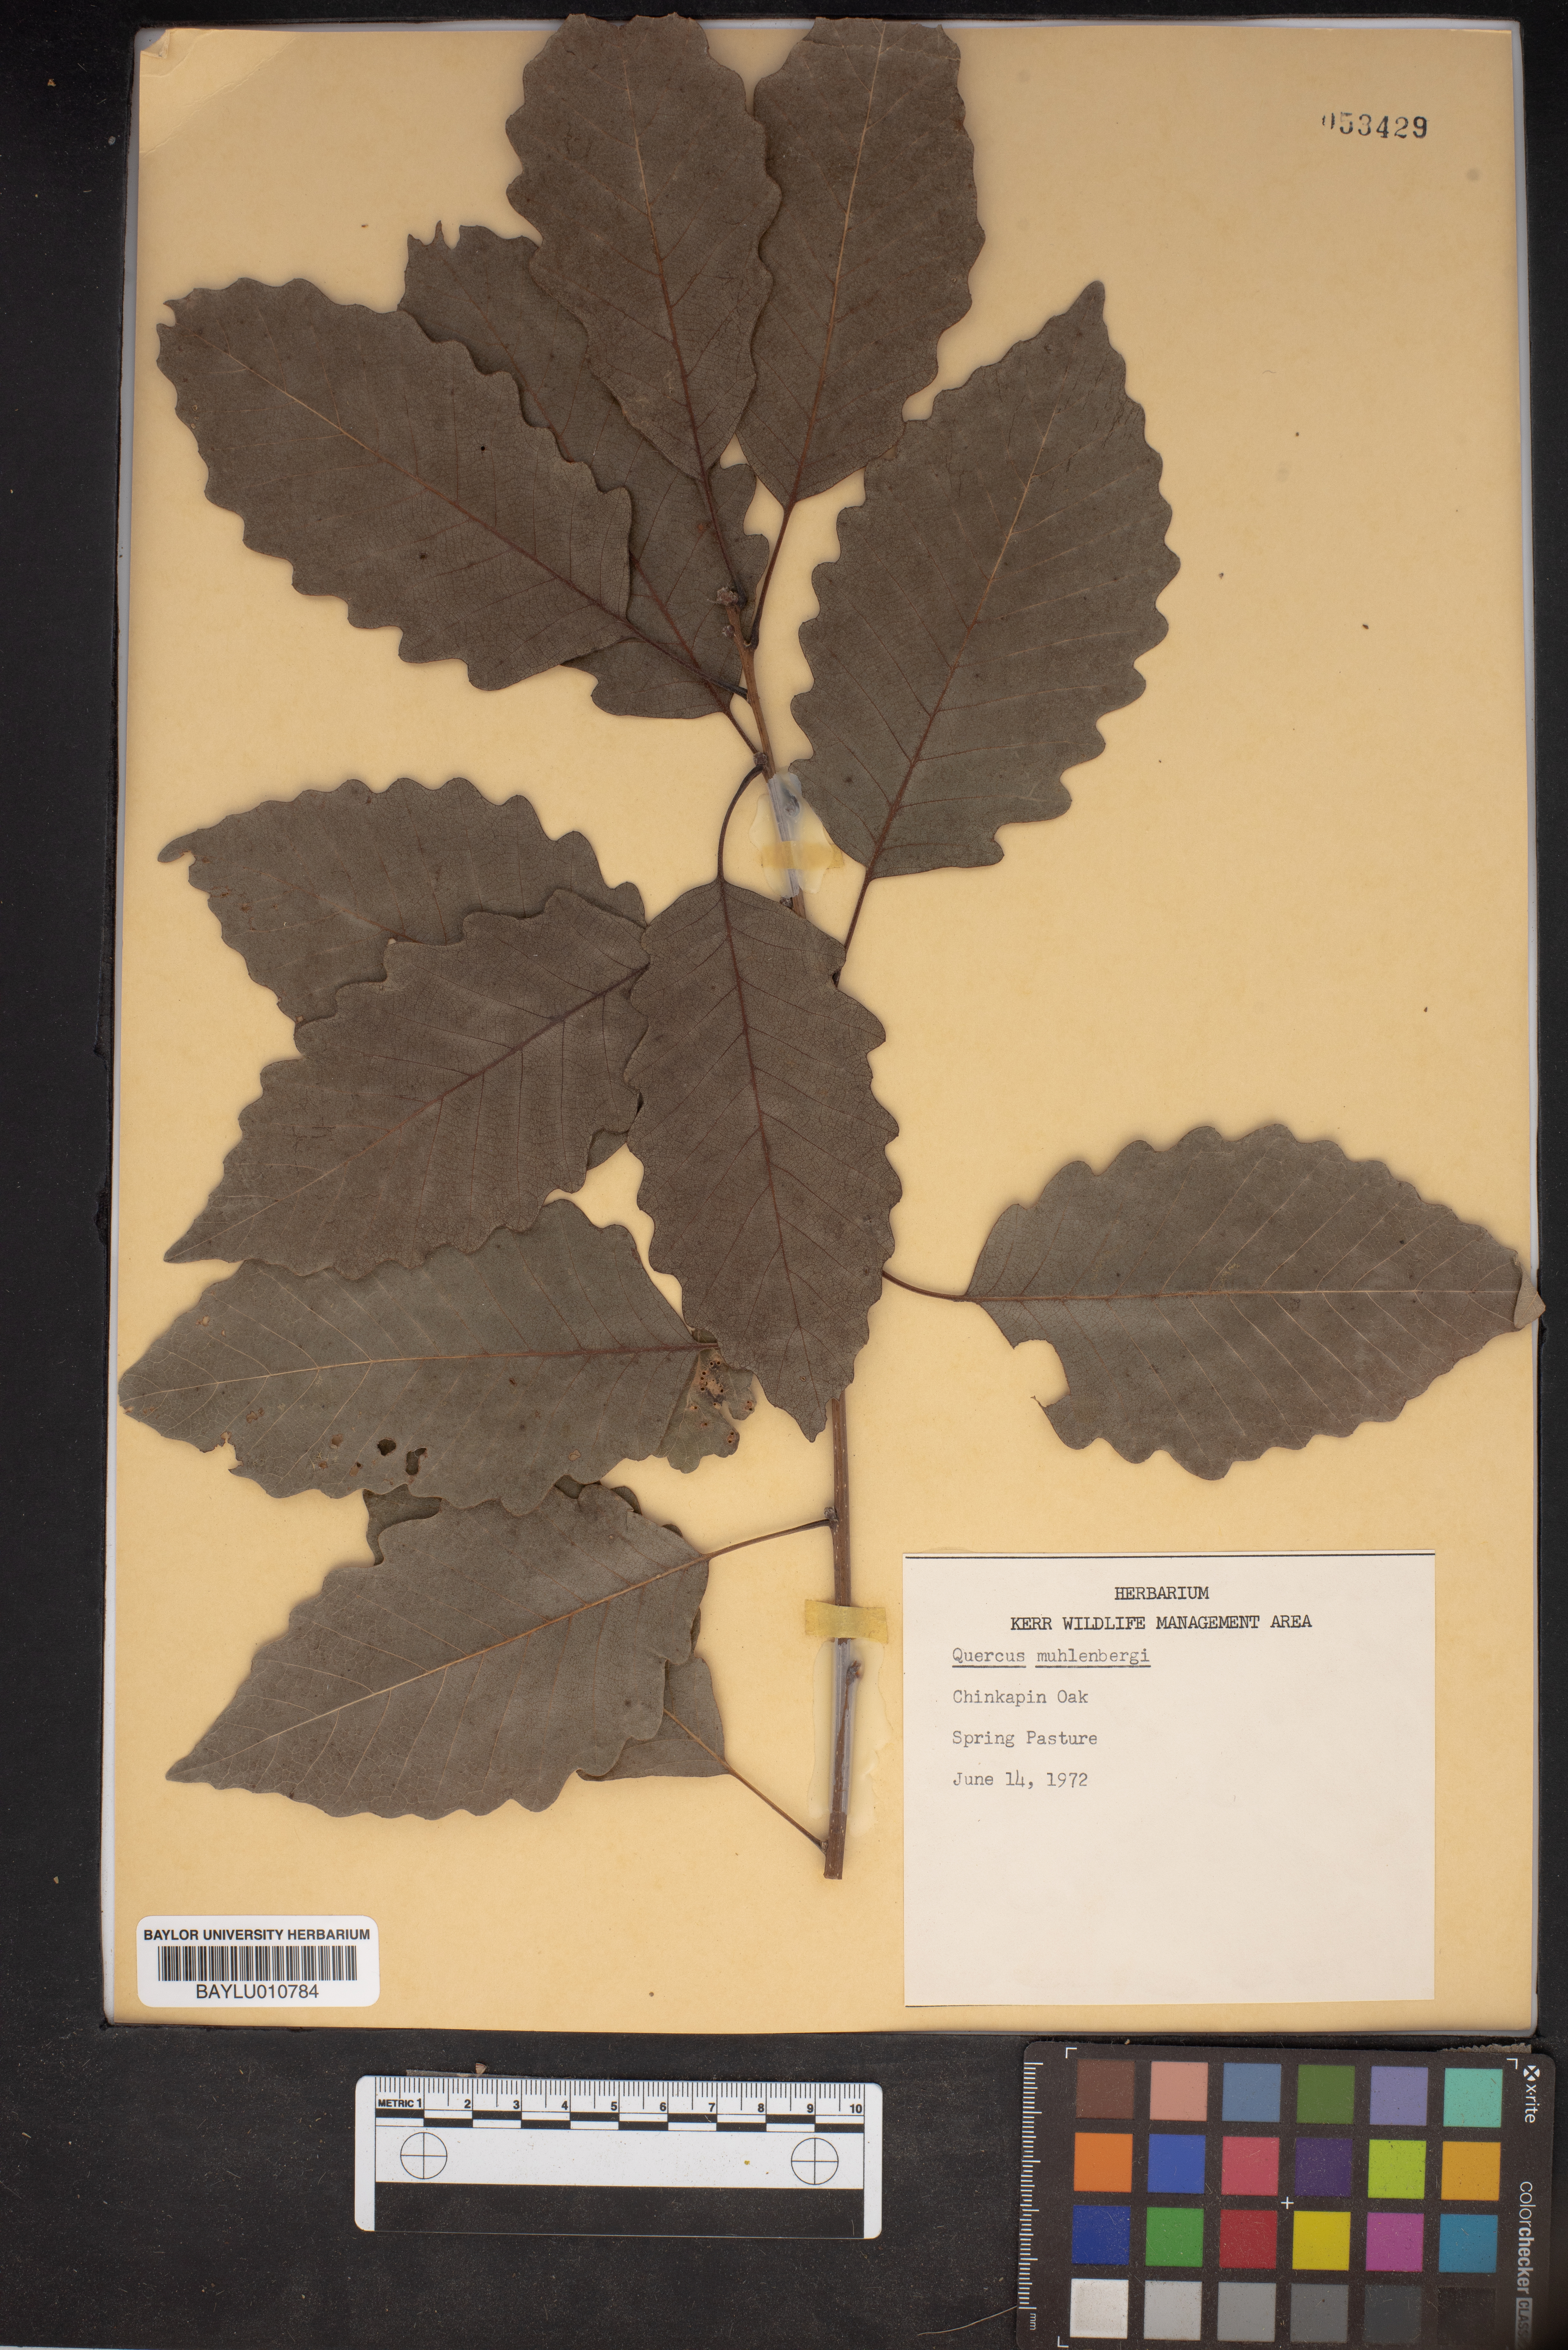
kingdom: Plantae
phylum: Tracheophyta
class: Magnoliopsida
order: Fagales
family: Fagaceae
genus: Quercus
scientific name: Quercus muehlenbergii
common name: Chinkapin oak
